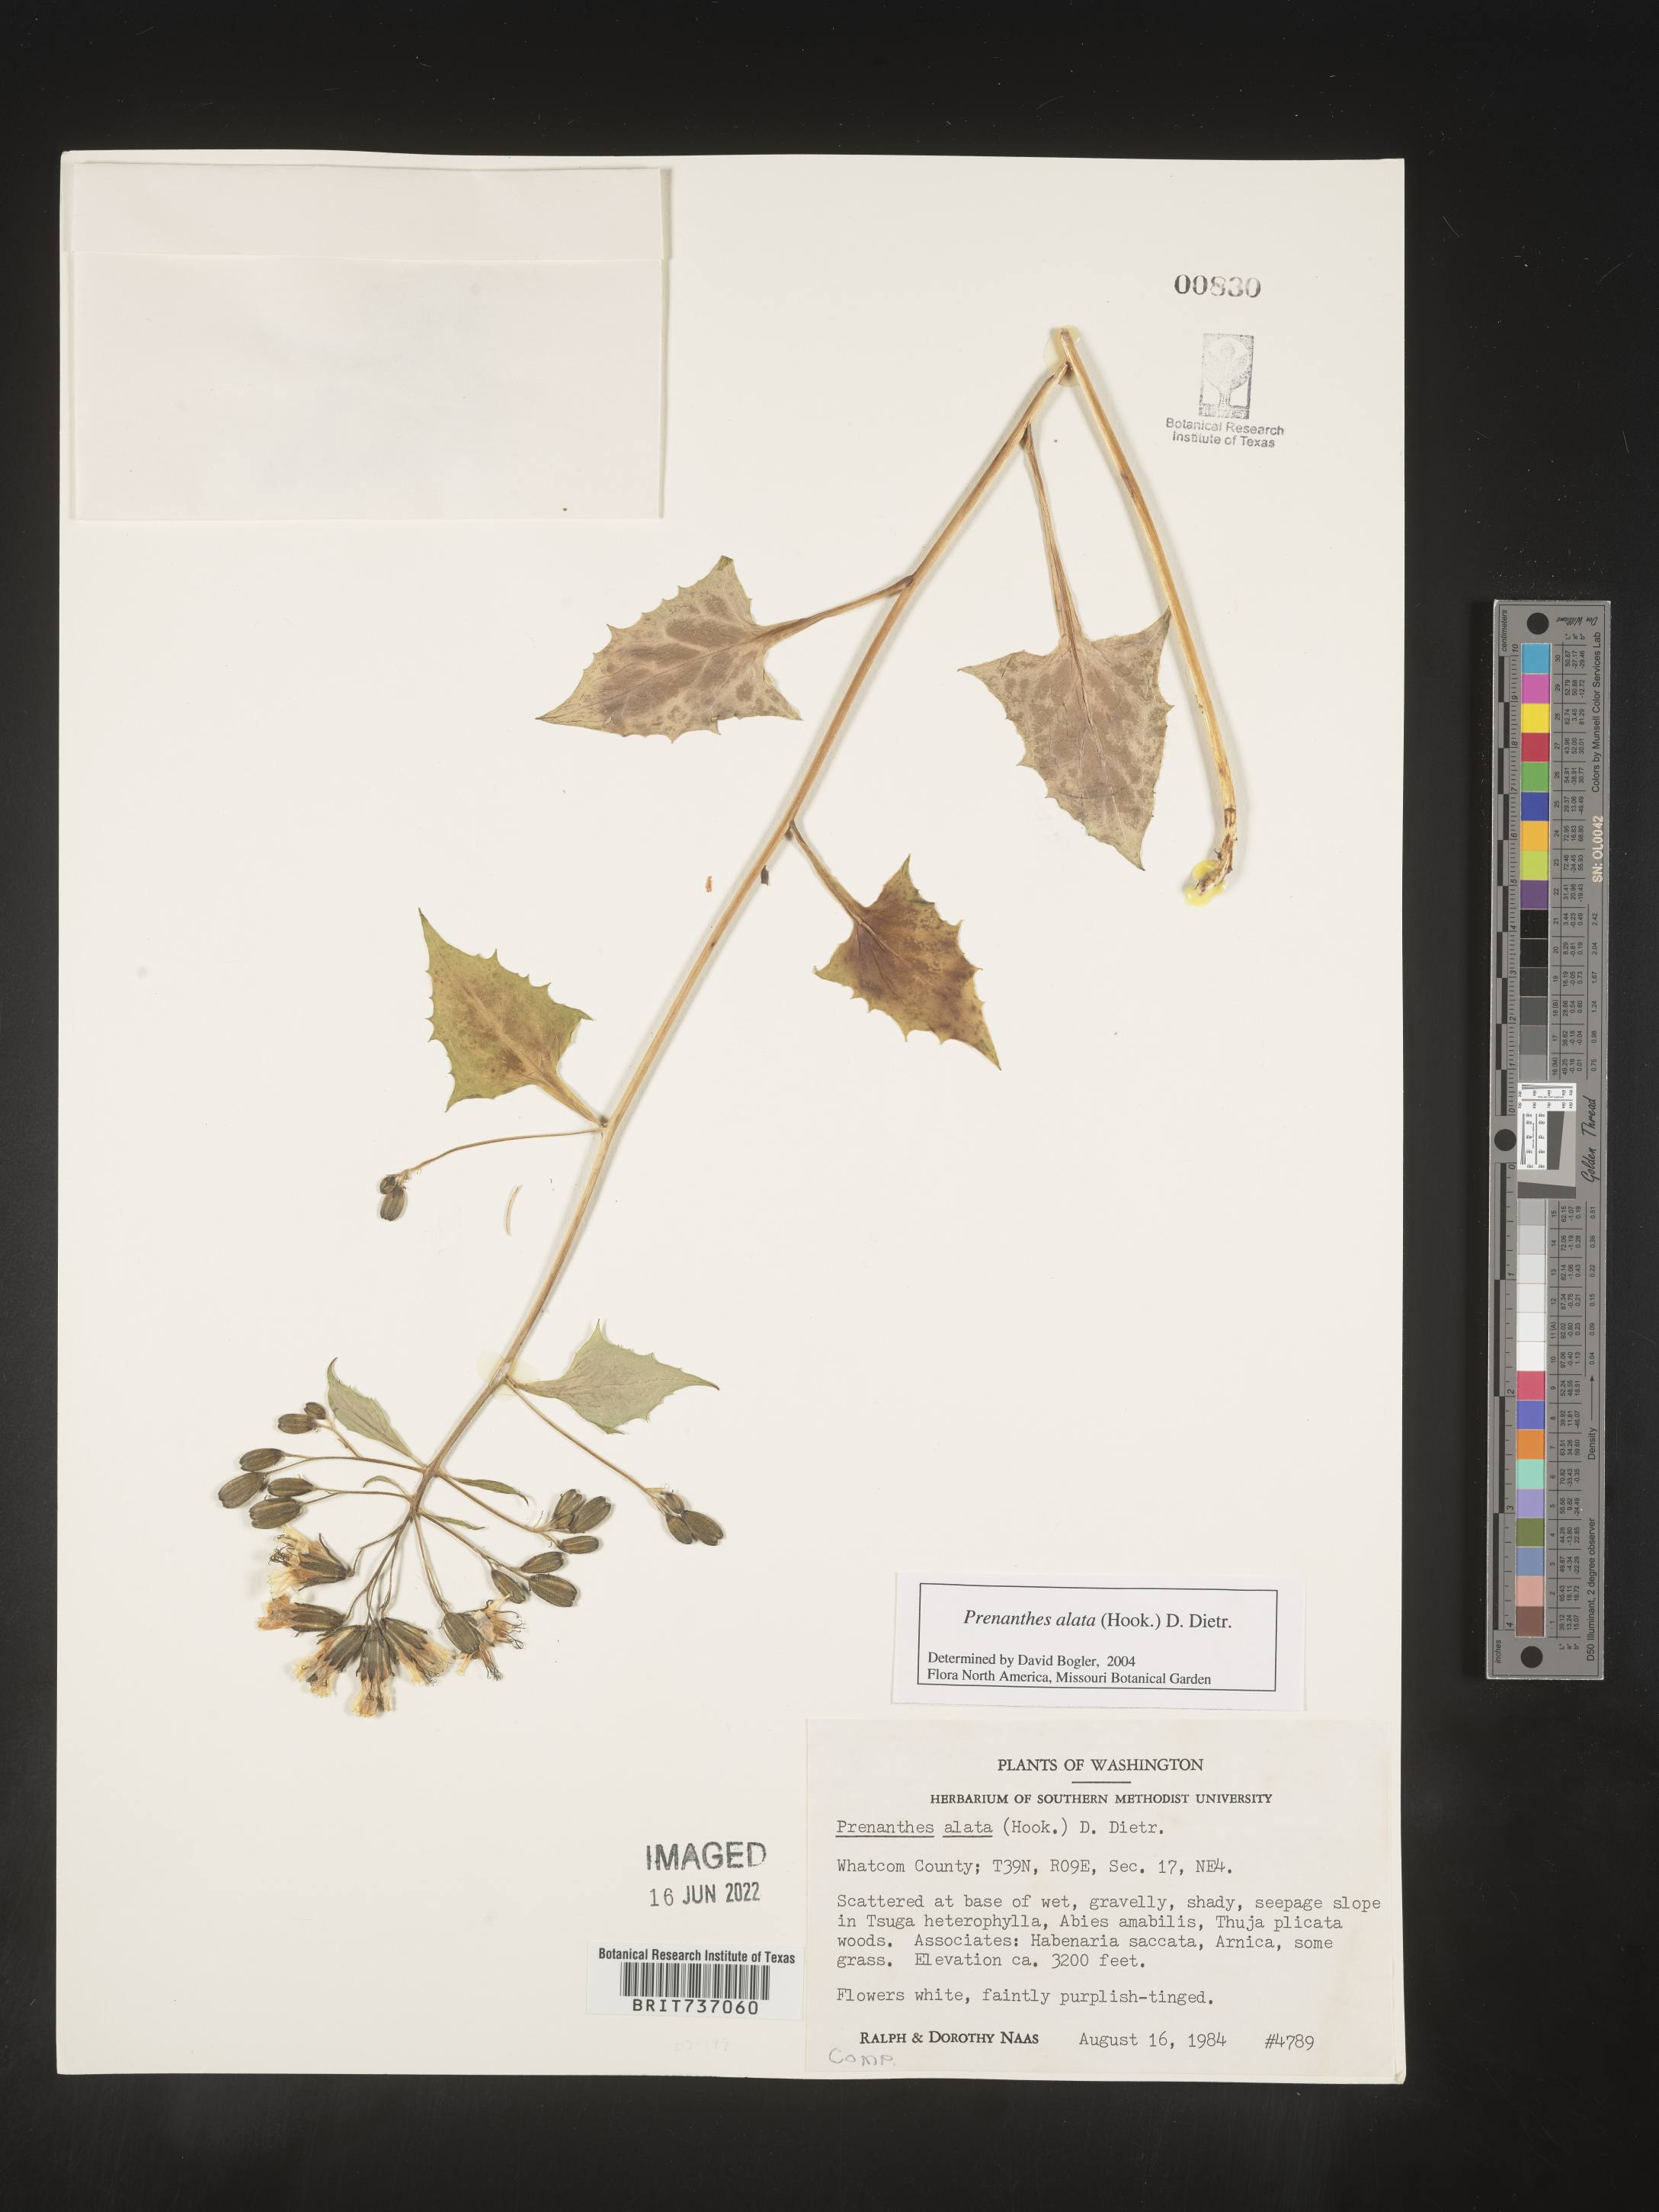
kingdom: Plantae
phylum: Tracheophyta
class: Magnoliopsida
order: Asterales
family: Asteraceae
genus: Melanoseris
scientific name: Melanoseris violifolia
